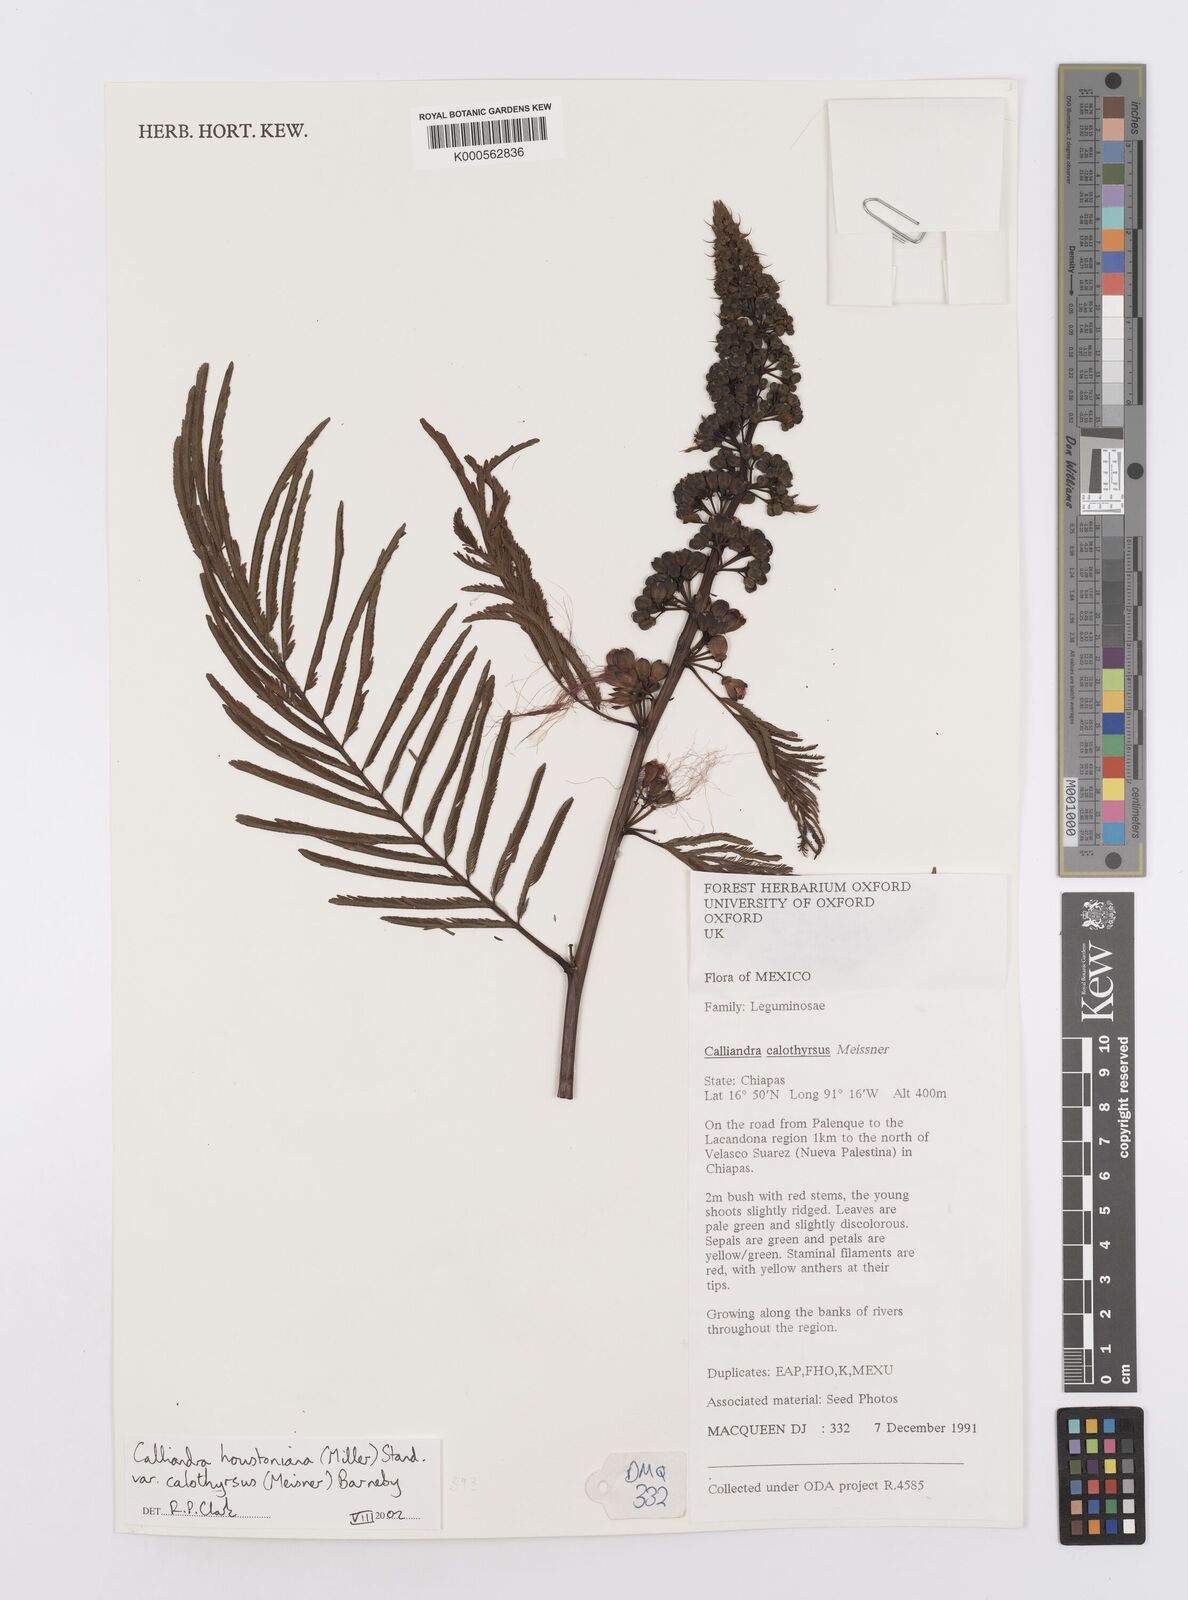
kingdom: Plantae
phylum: Tracheophyta
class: Magnoliopsida
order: Fabales
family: Fabaceae
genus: Calliandra
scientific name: Calliandra houstoniana
